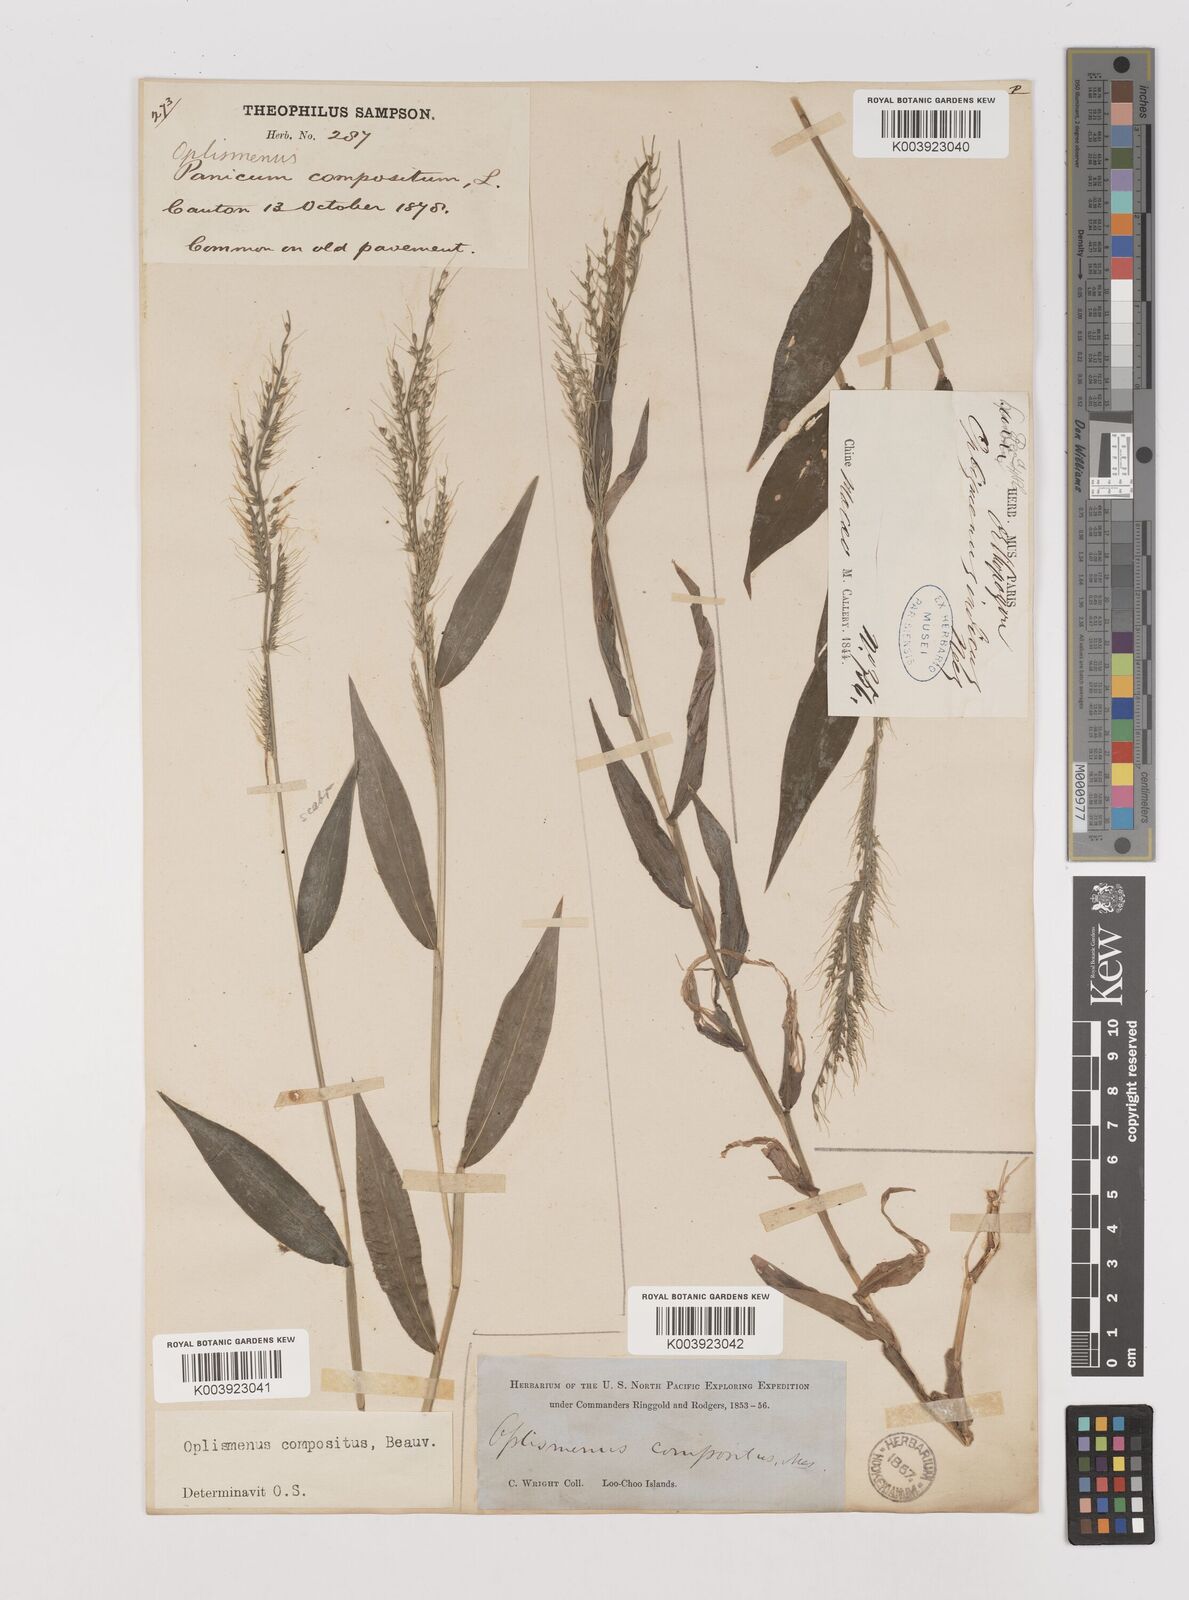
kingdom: Plantae
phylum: Tracheophyta
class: Liliopsida
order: Poales
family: Poaceae
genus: Oplismenus
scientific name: Oplismenus compositus
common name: Running mountain grass
